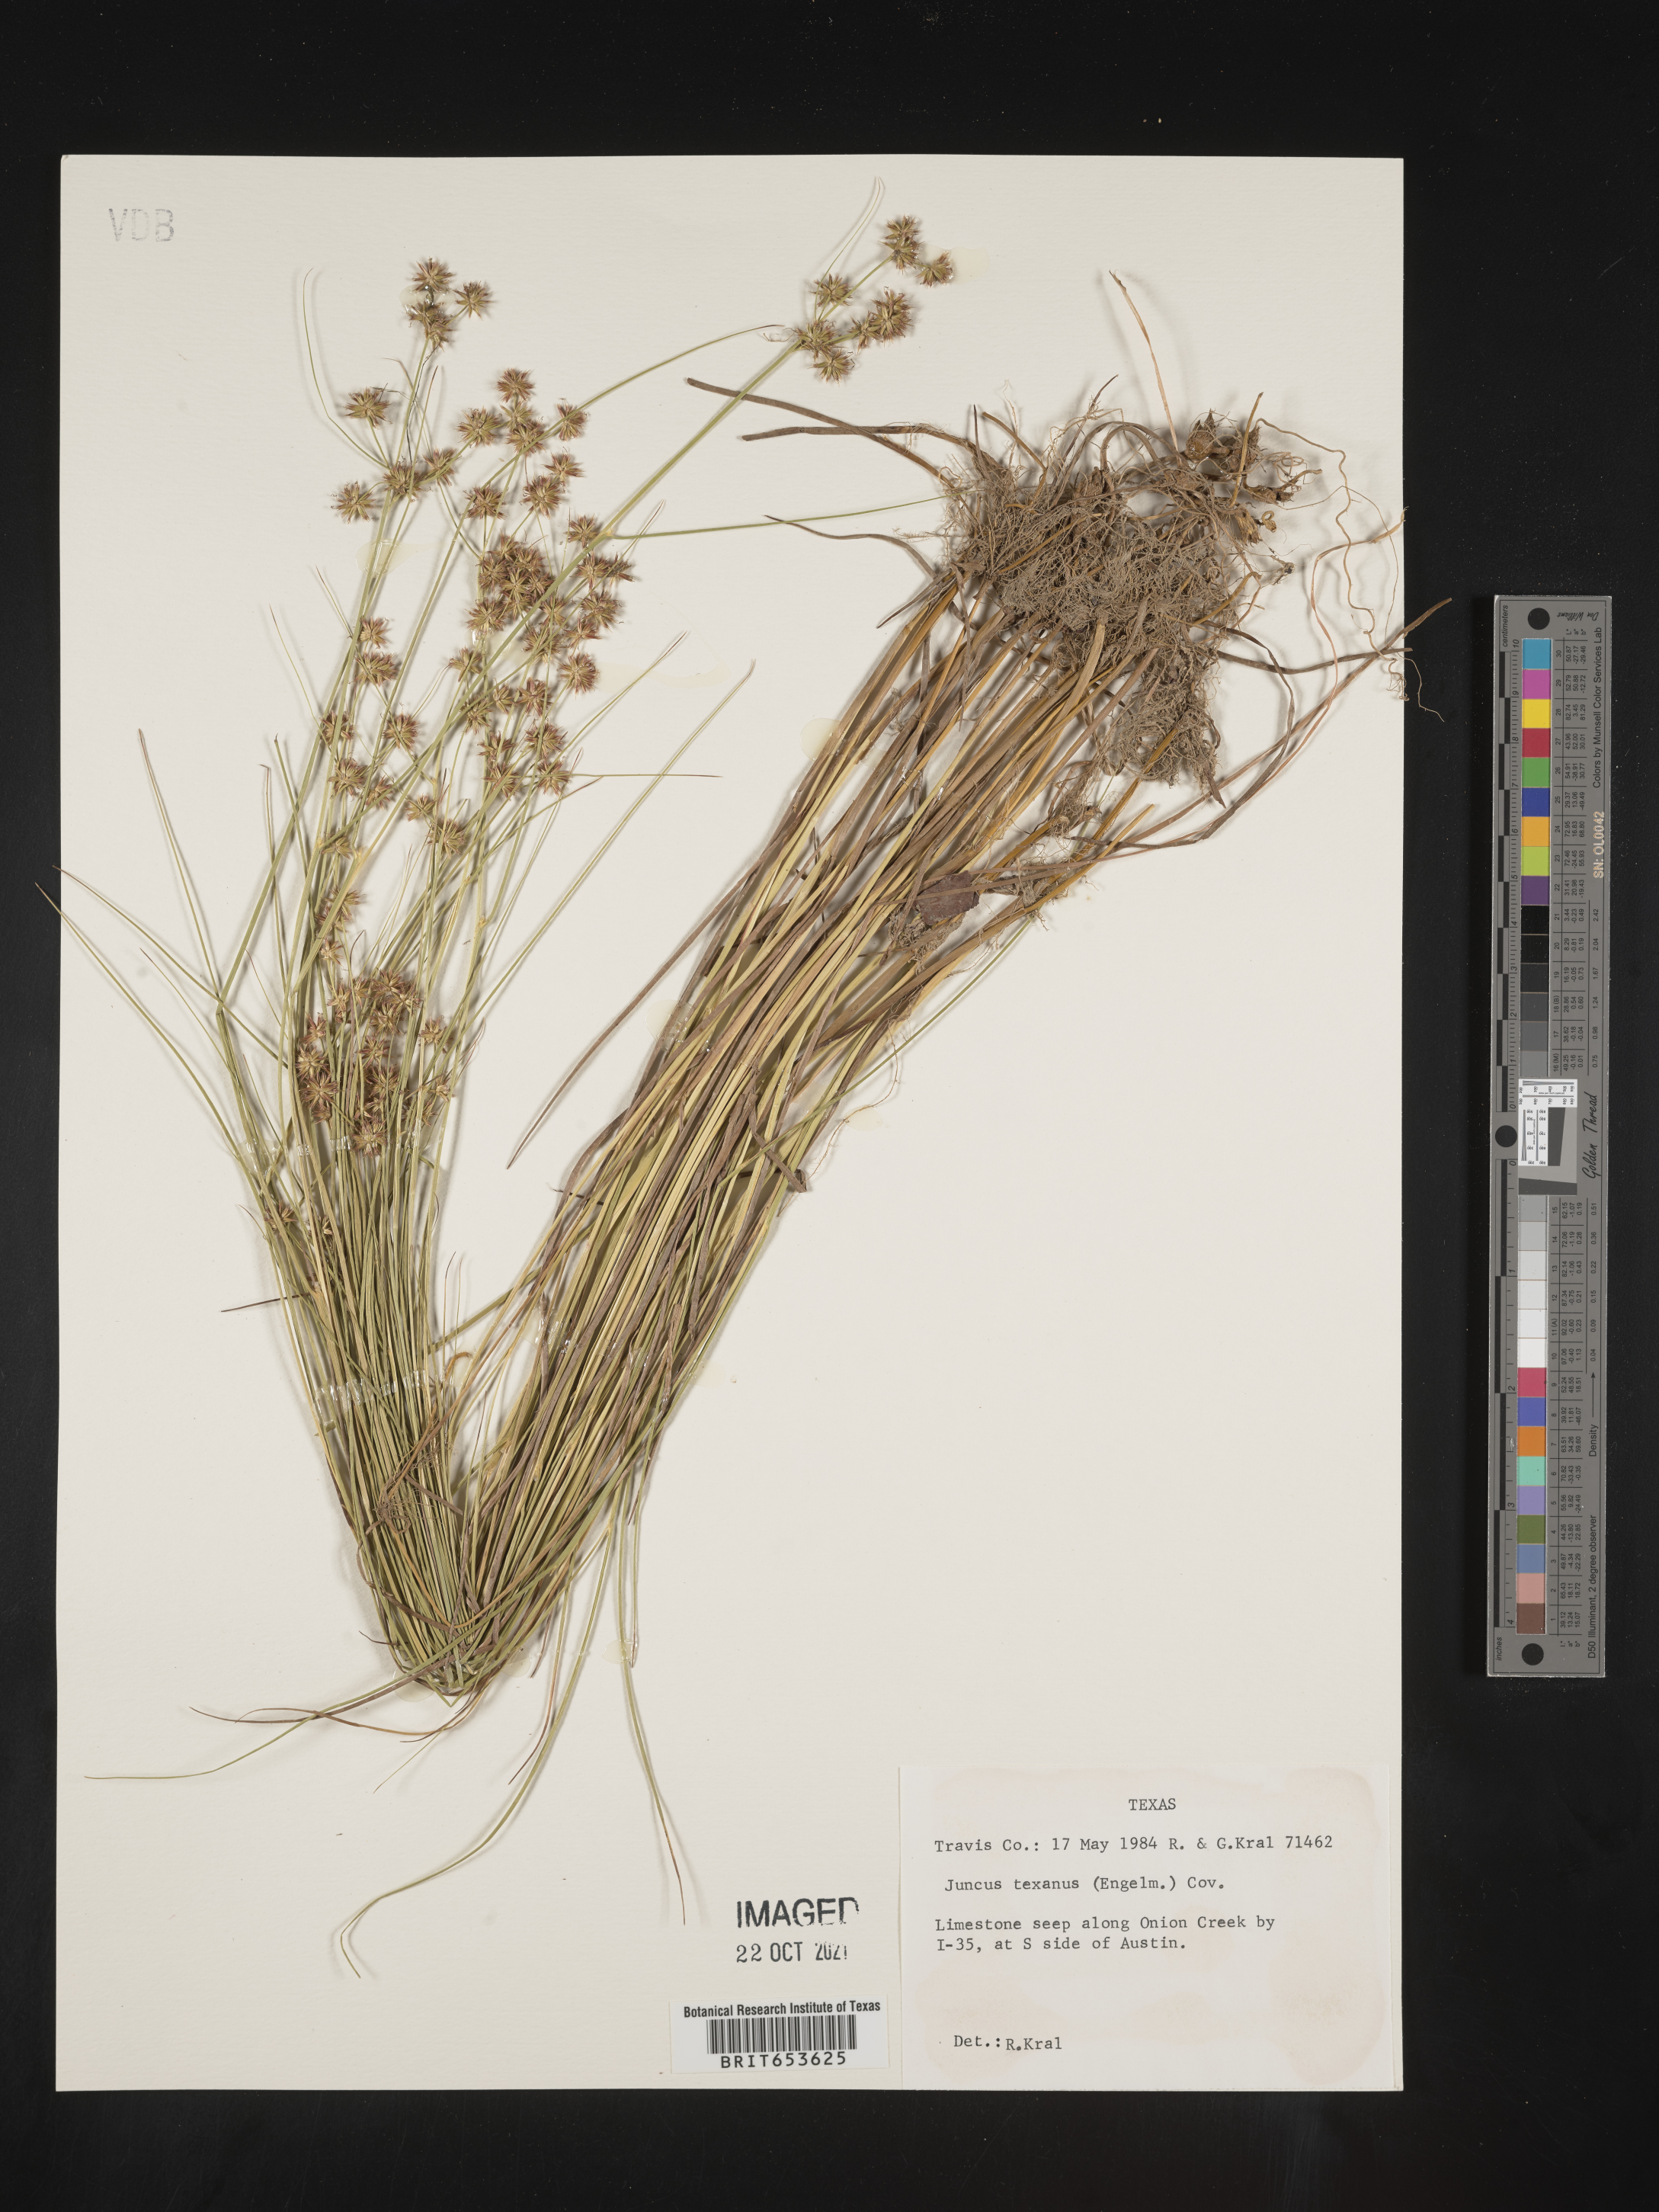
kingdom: Plantae
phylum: Tracheophyta
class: Liliopsida
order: Poales
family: Juncaceae
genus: Juncus
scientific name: Juncus texanus
